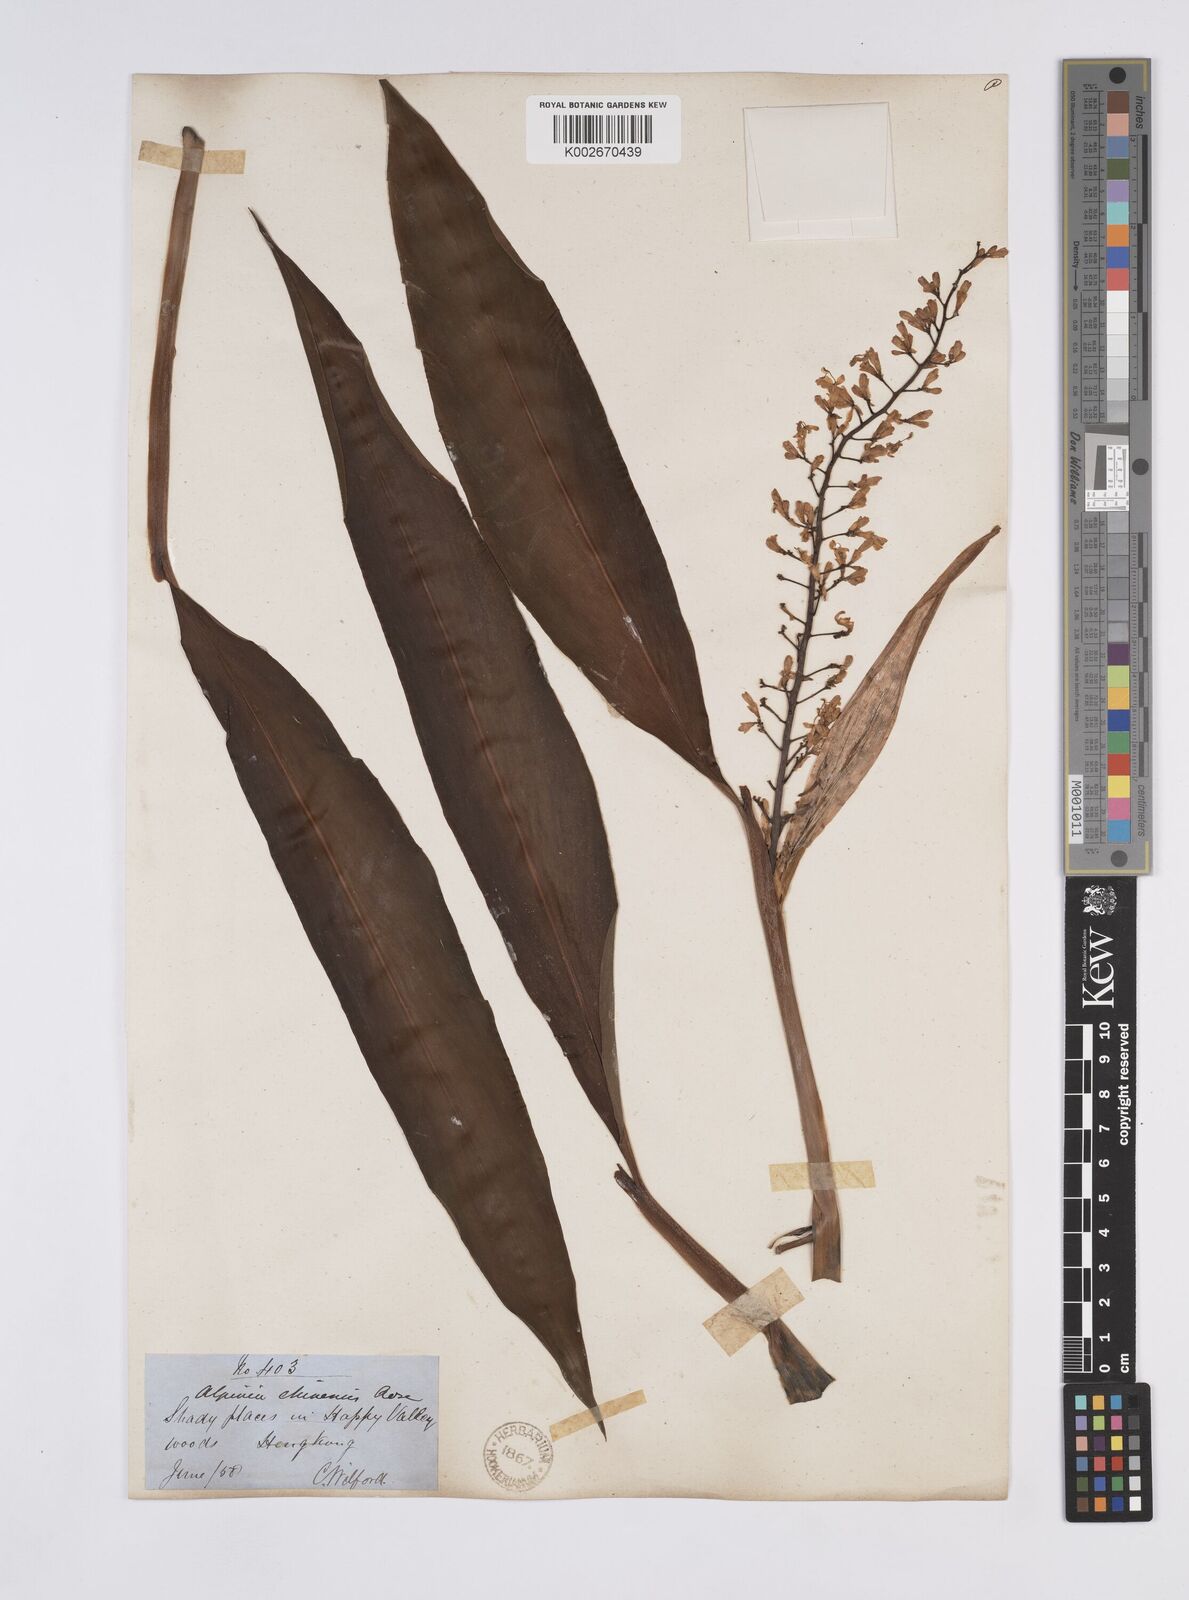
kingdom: Plantae
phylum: Tracheophyta
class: Liliopsida
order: Zingiberales
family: Zingiberaceae
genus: Alpinia
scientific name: Alpinia chinensis
